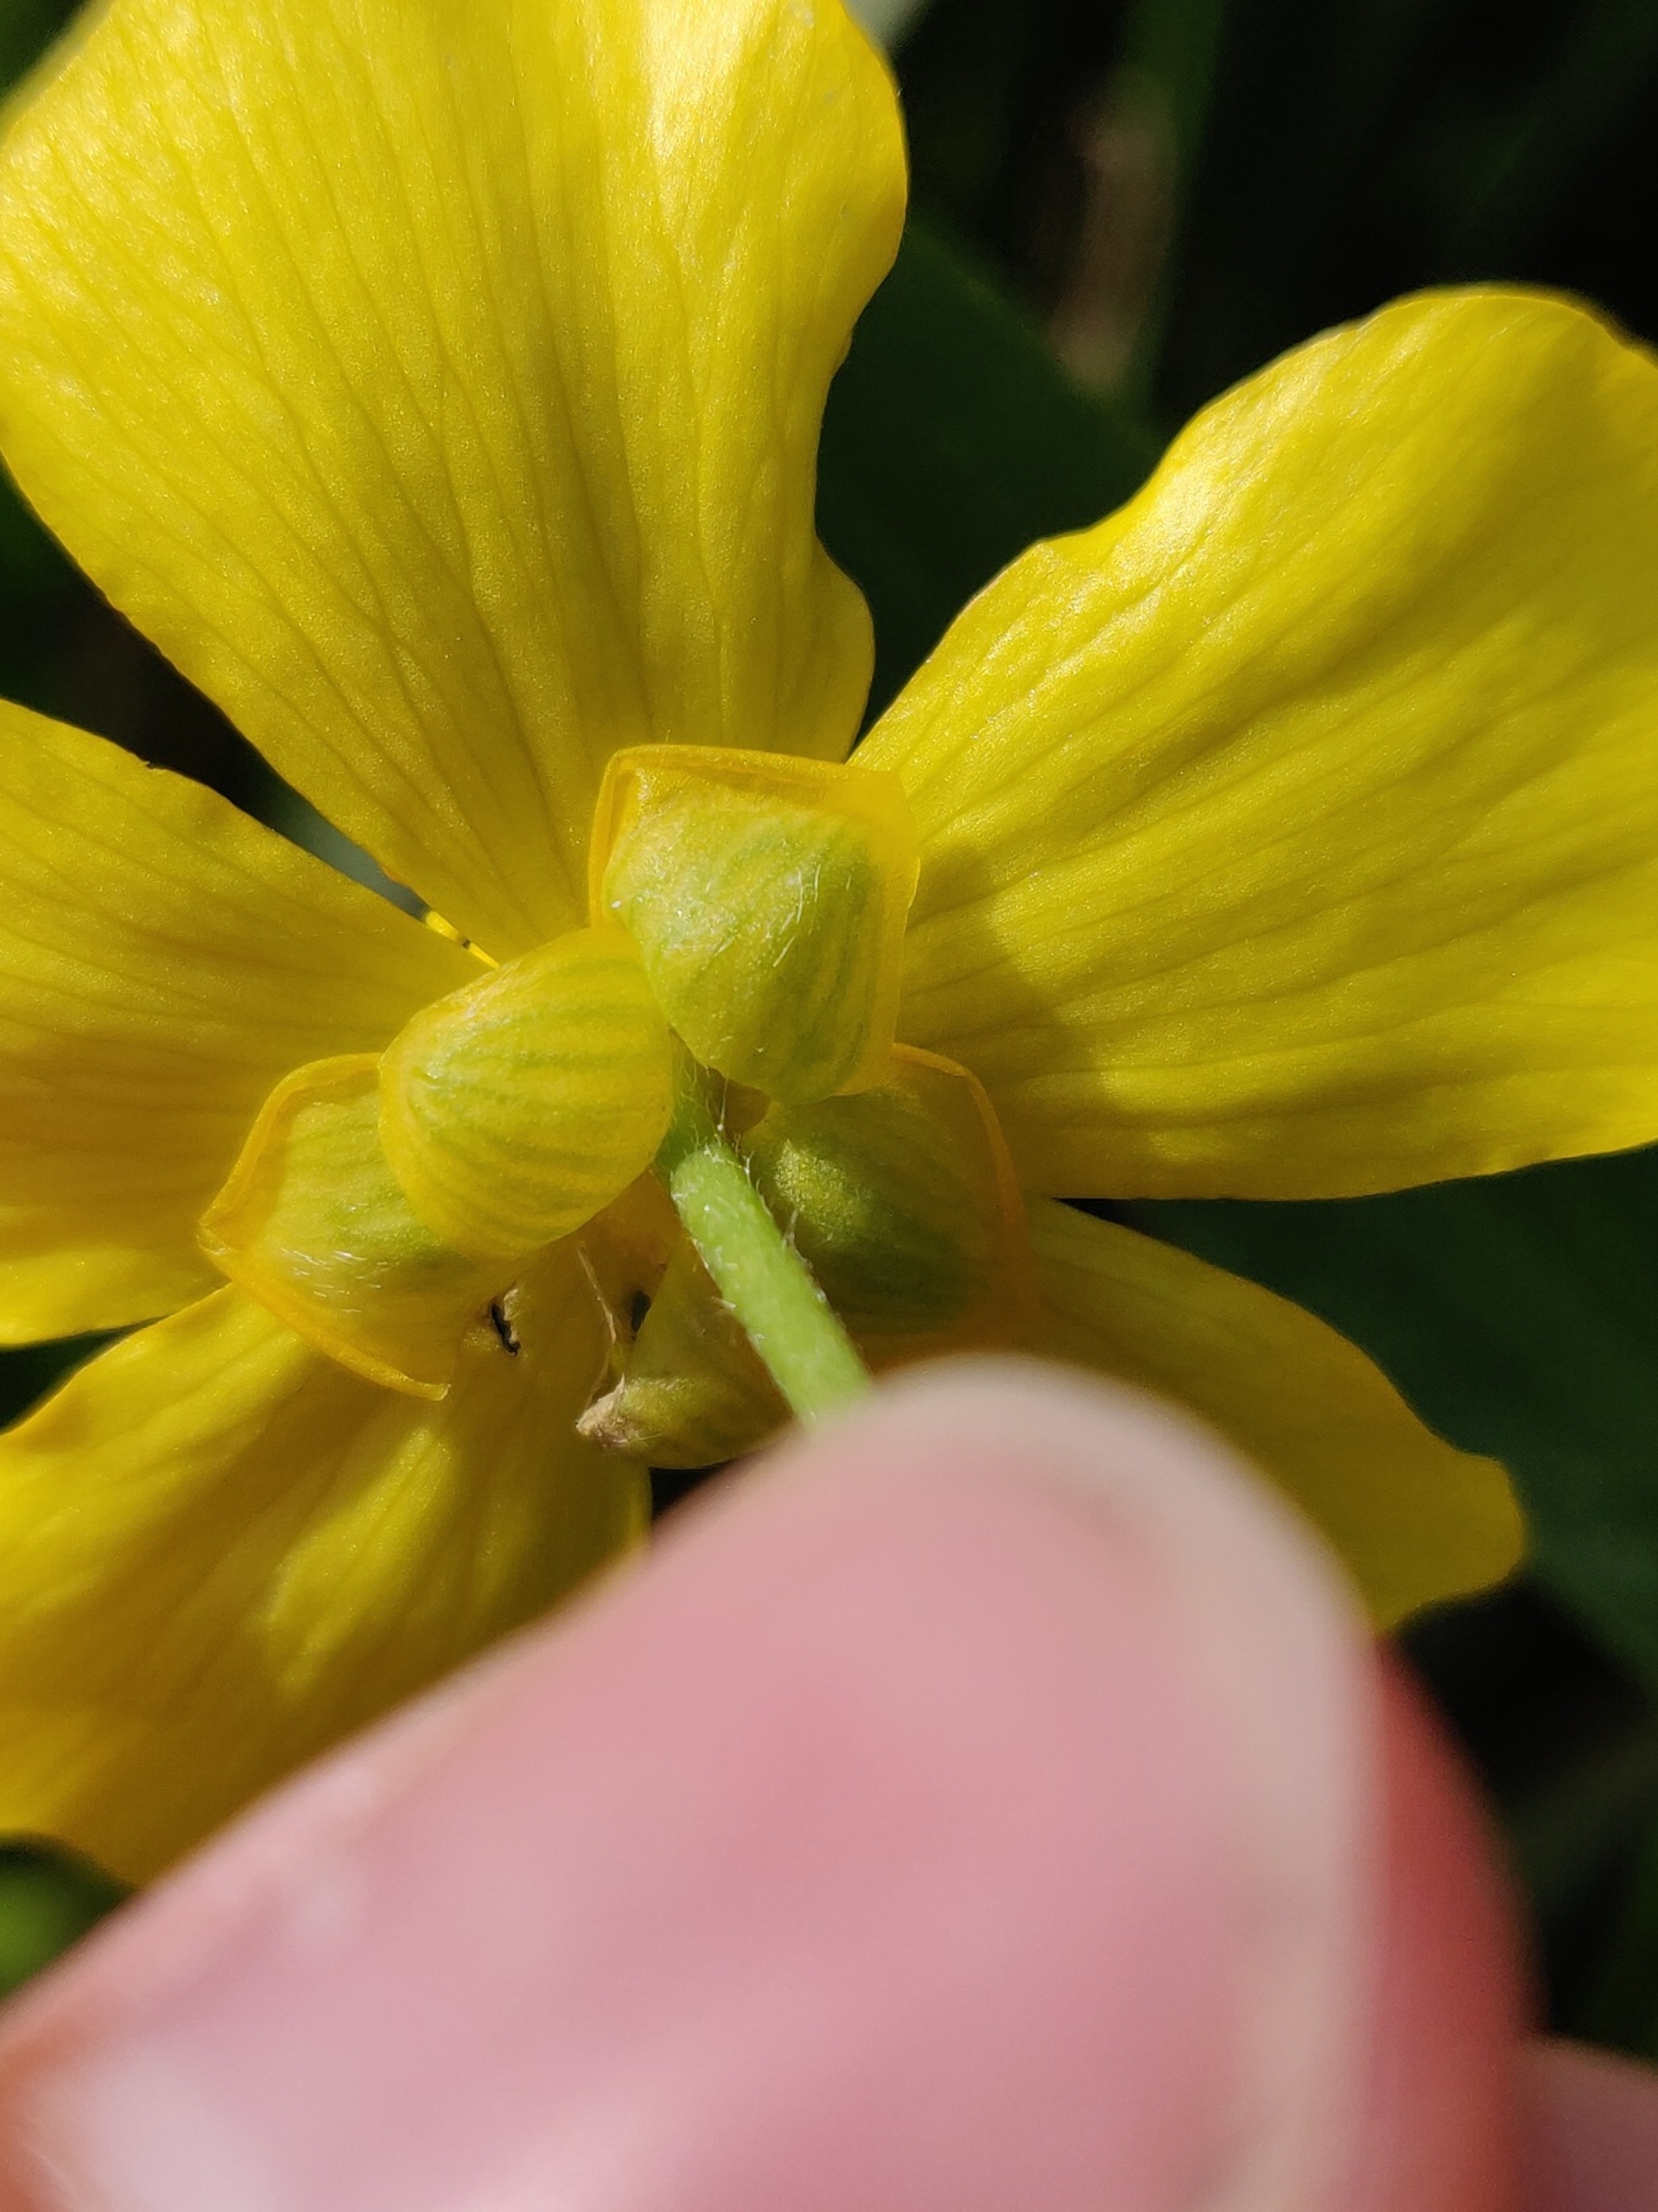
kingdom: Plantae
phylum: Tracheophyta
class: Magnoliopsida
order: Ranunculales
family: Ranunculaceae
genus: Ranunculus
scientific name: Ranunculus lingua
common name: Langbladet ranunkel
